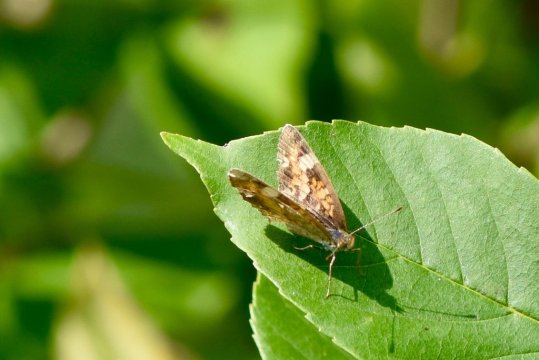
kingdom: Animalia
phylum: Arthropoda
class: Insecta
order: Lepidoptera
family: Nymphalidae
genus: Phyciodes
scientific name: Phyciodes
